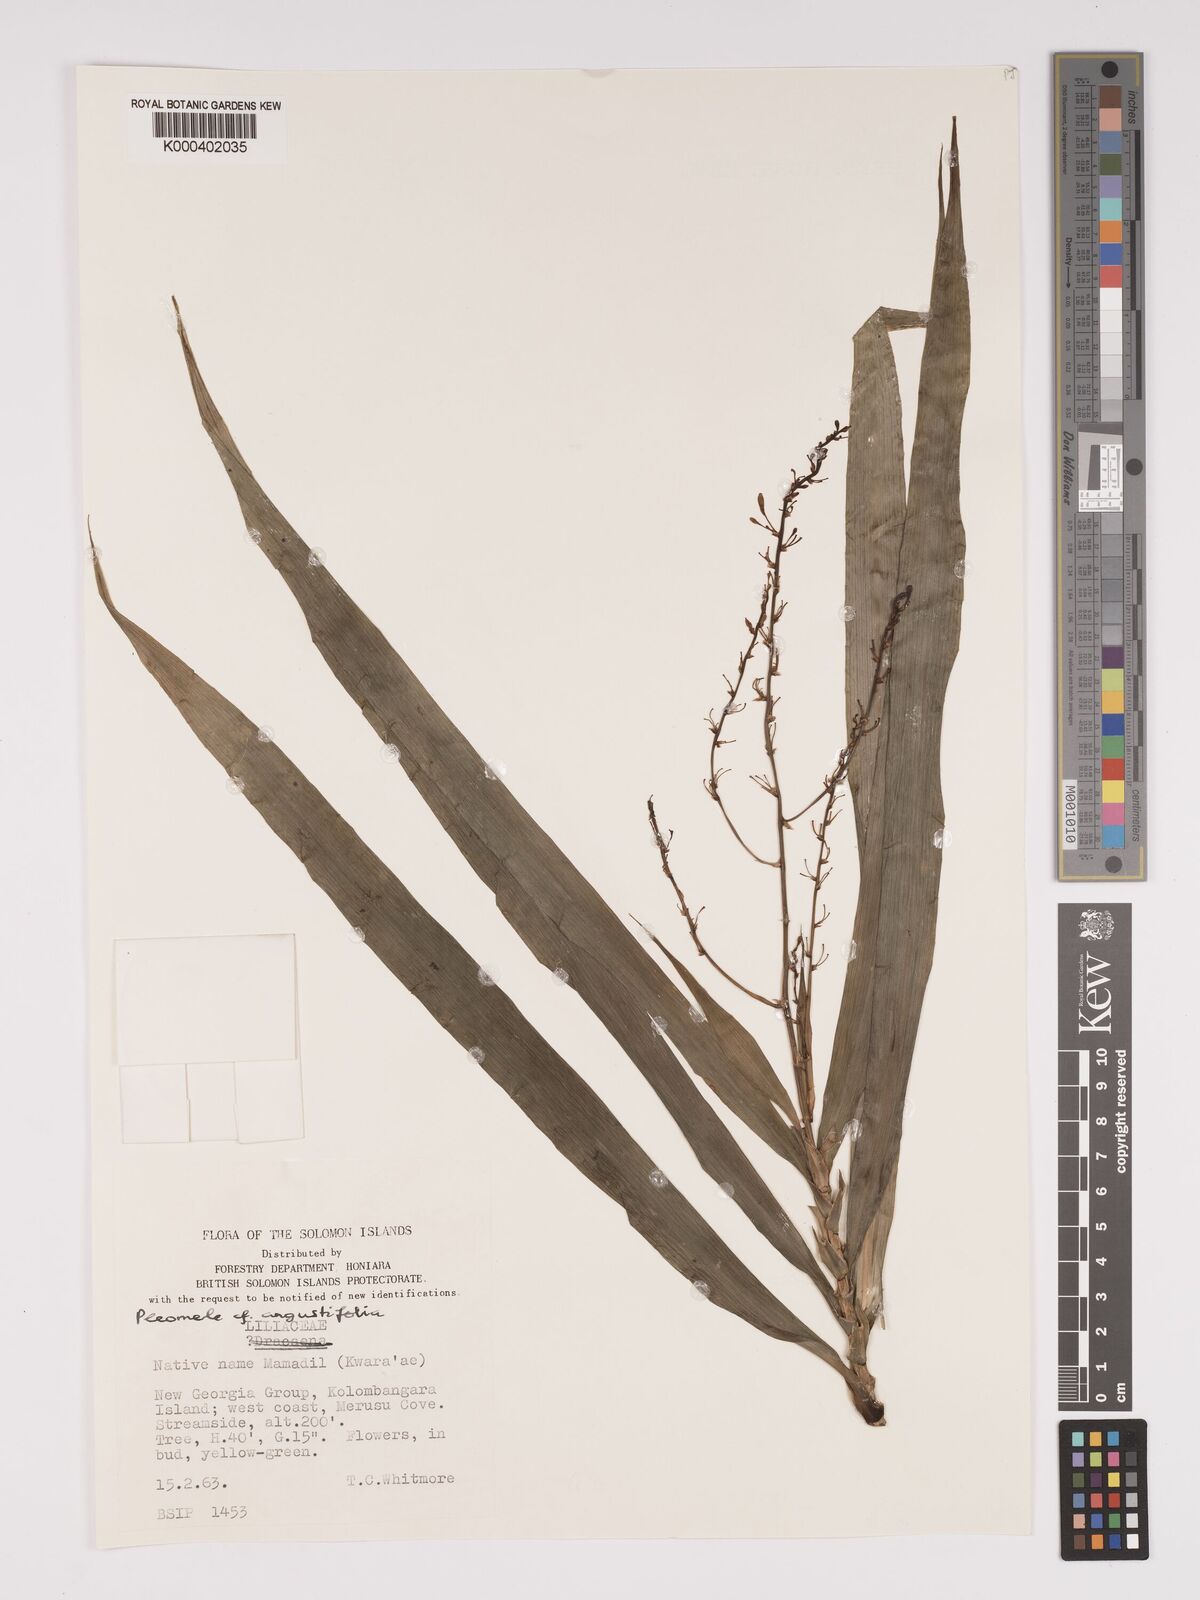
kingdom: Plantae
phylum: Tracheophyta
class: Liliopsida
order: Asparagales
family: Asparagaceae
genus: Dracaena
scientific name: Dracaena angustifolia
